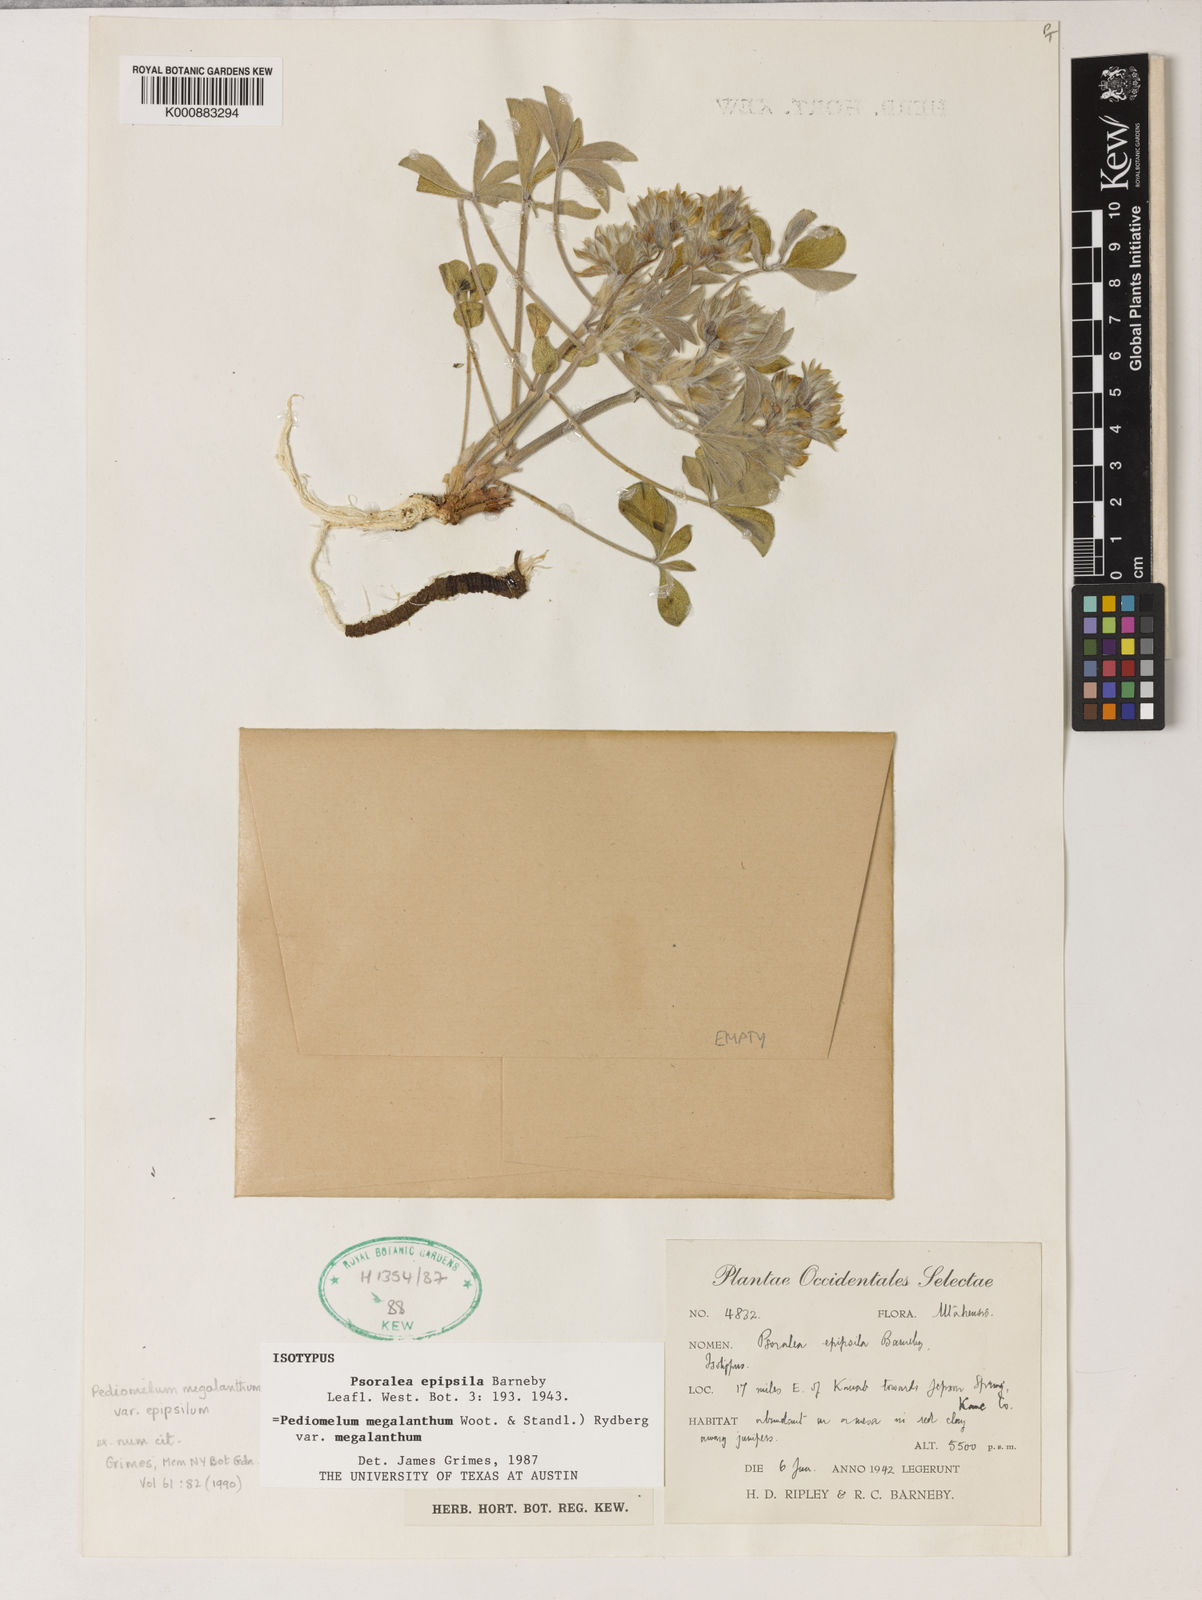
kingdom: Plantae
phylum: Tracheophyta
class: Magnoliopsida
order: Fabales
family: Fabaceae
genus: Pediomelum
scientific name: Pediomelum megalanthum
